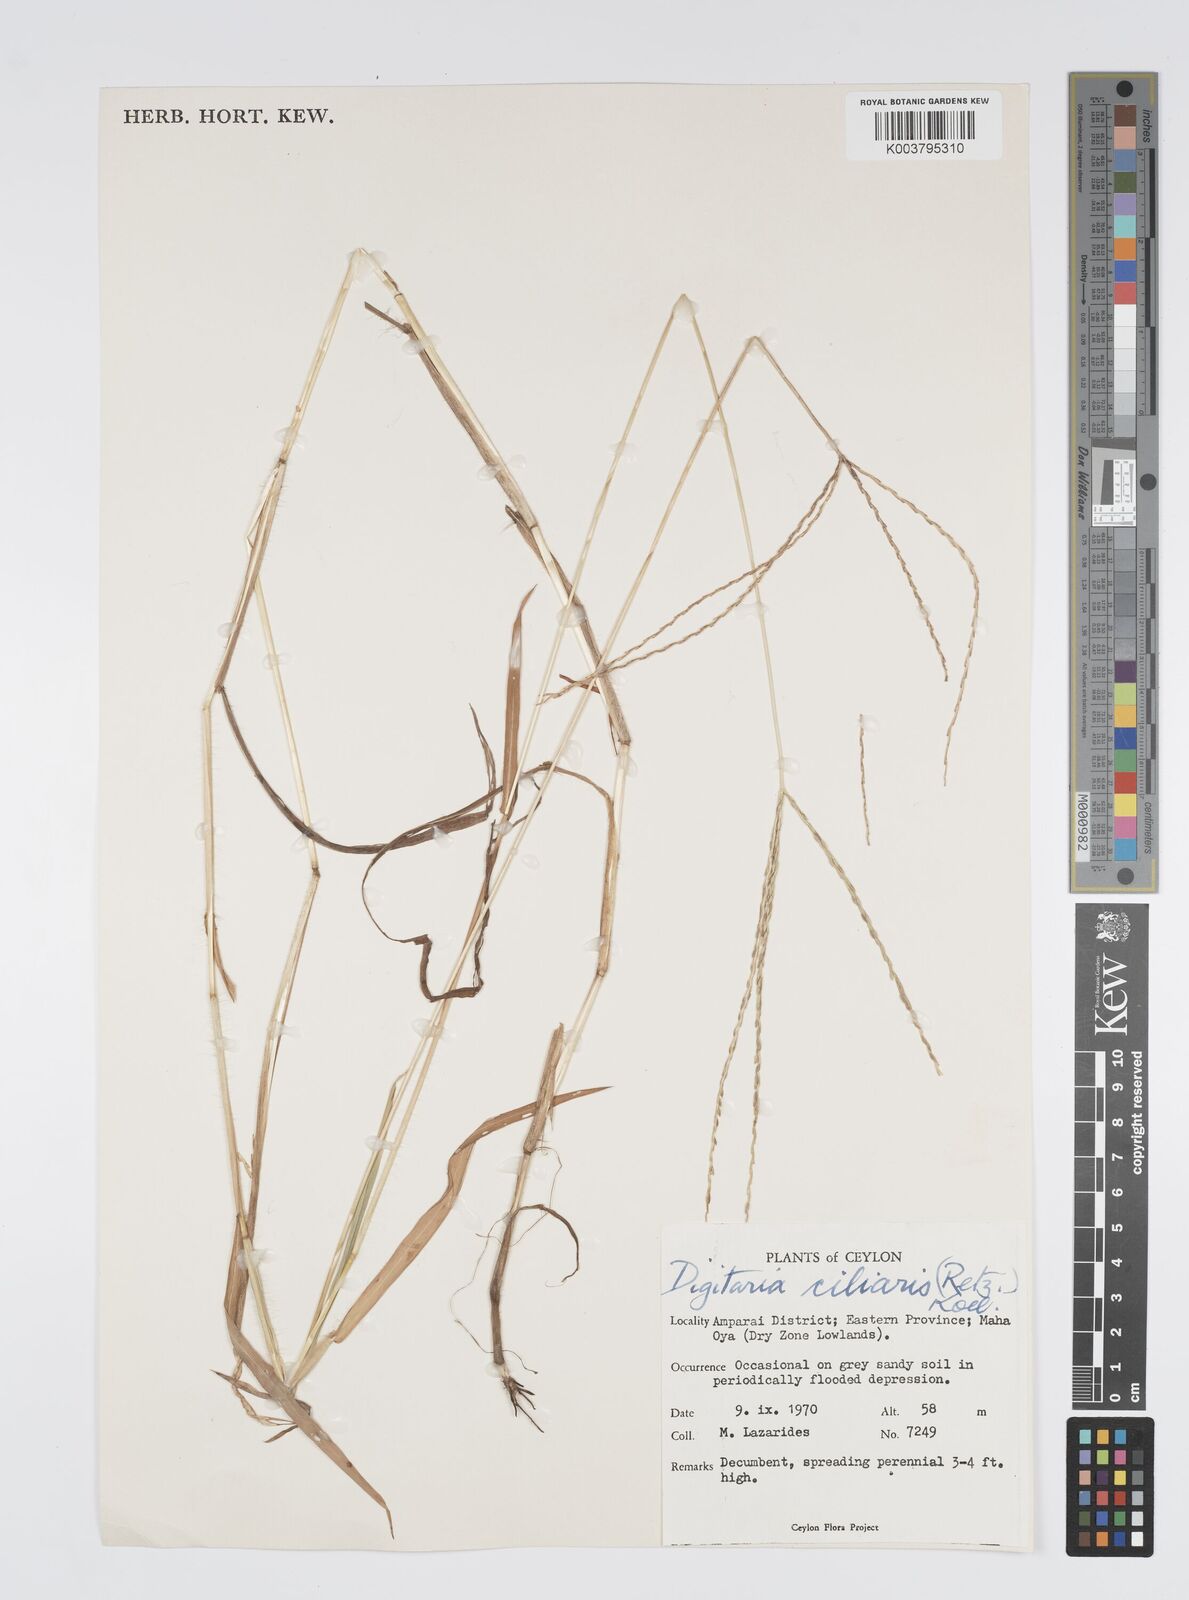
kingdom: Plantae
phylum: Tracheophyta
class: Liliopsida
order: Poales
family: Poaceae
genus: Digitaria
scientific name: Digitaria ciliaris
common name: Tropical finger-grass
